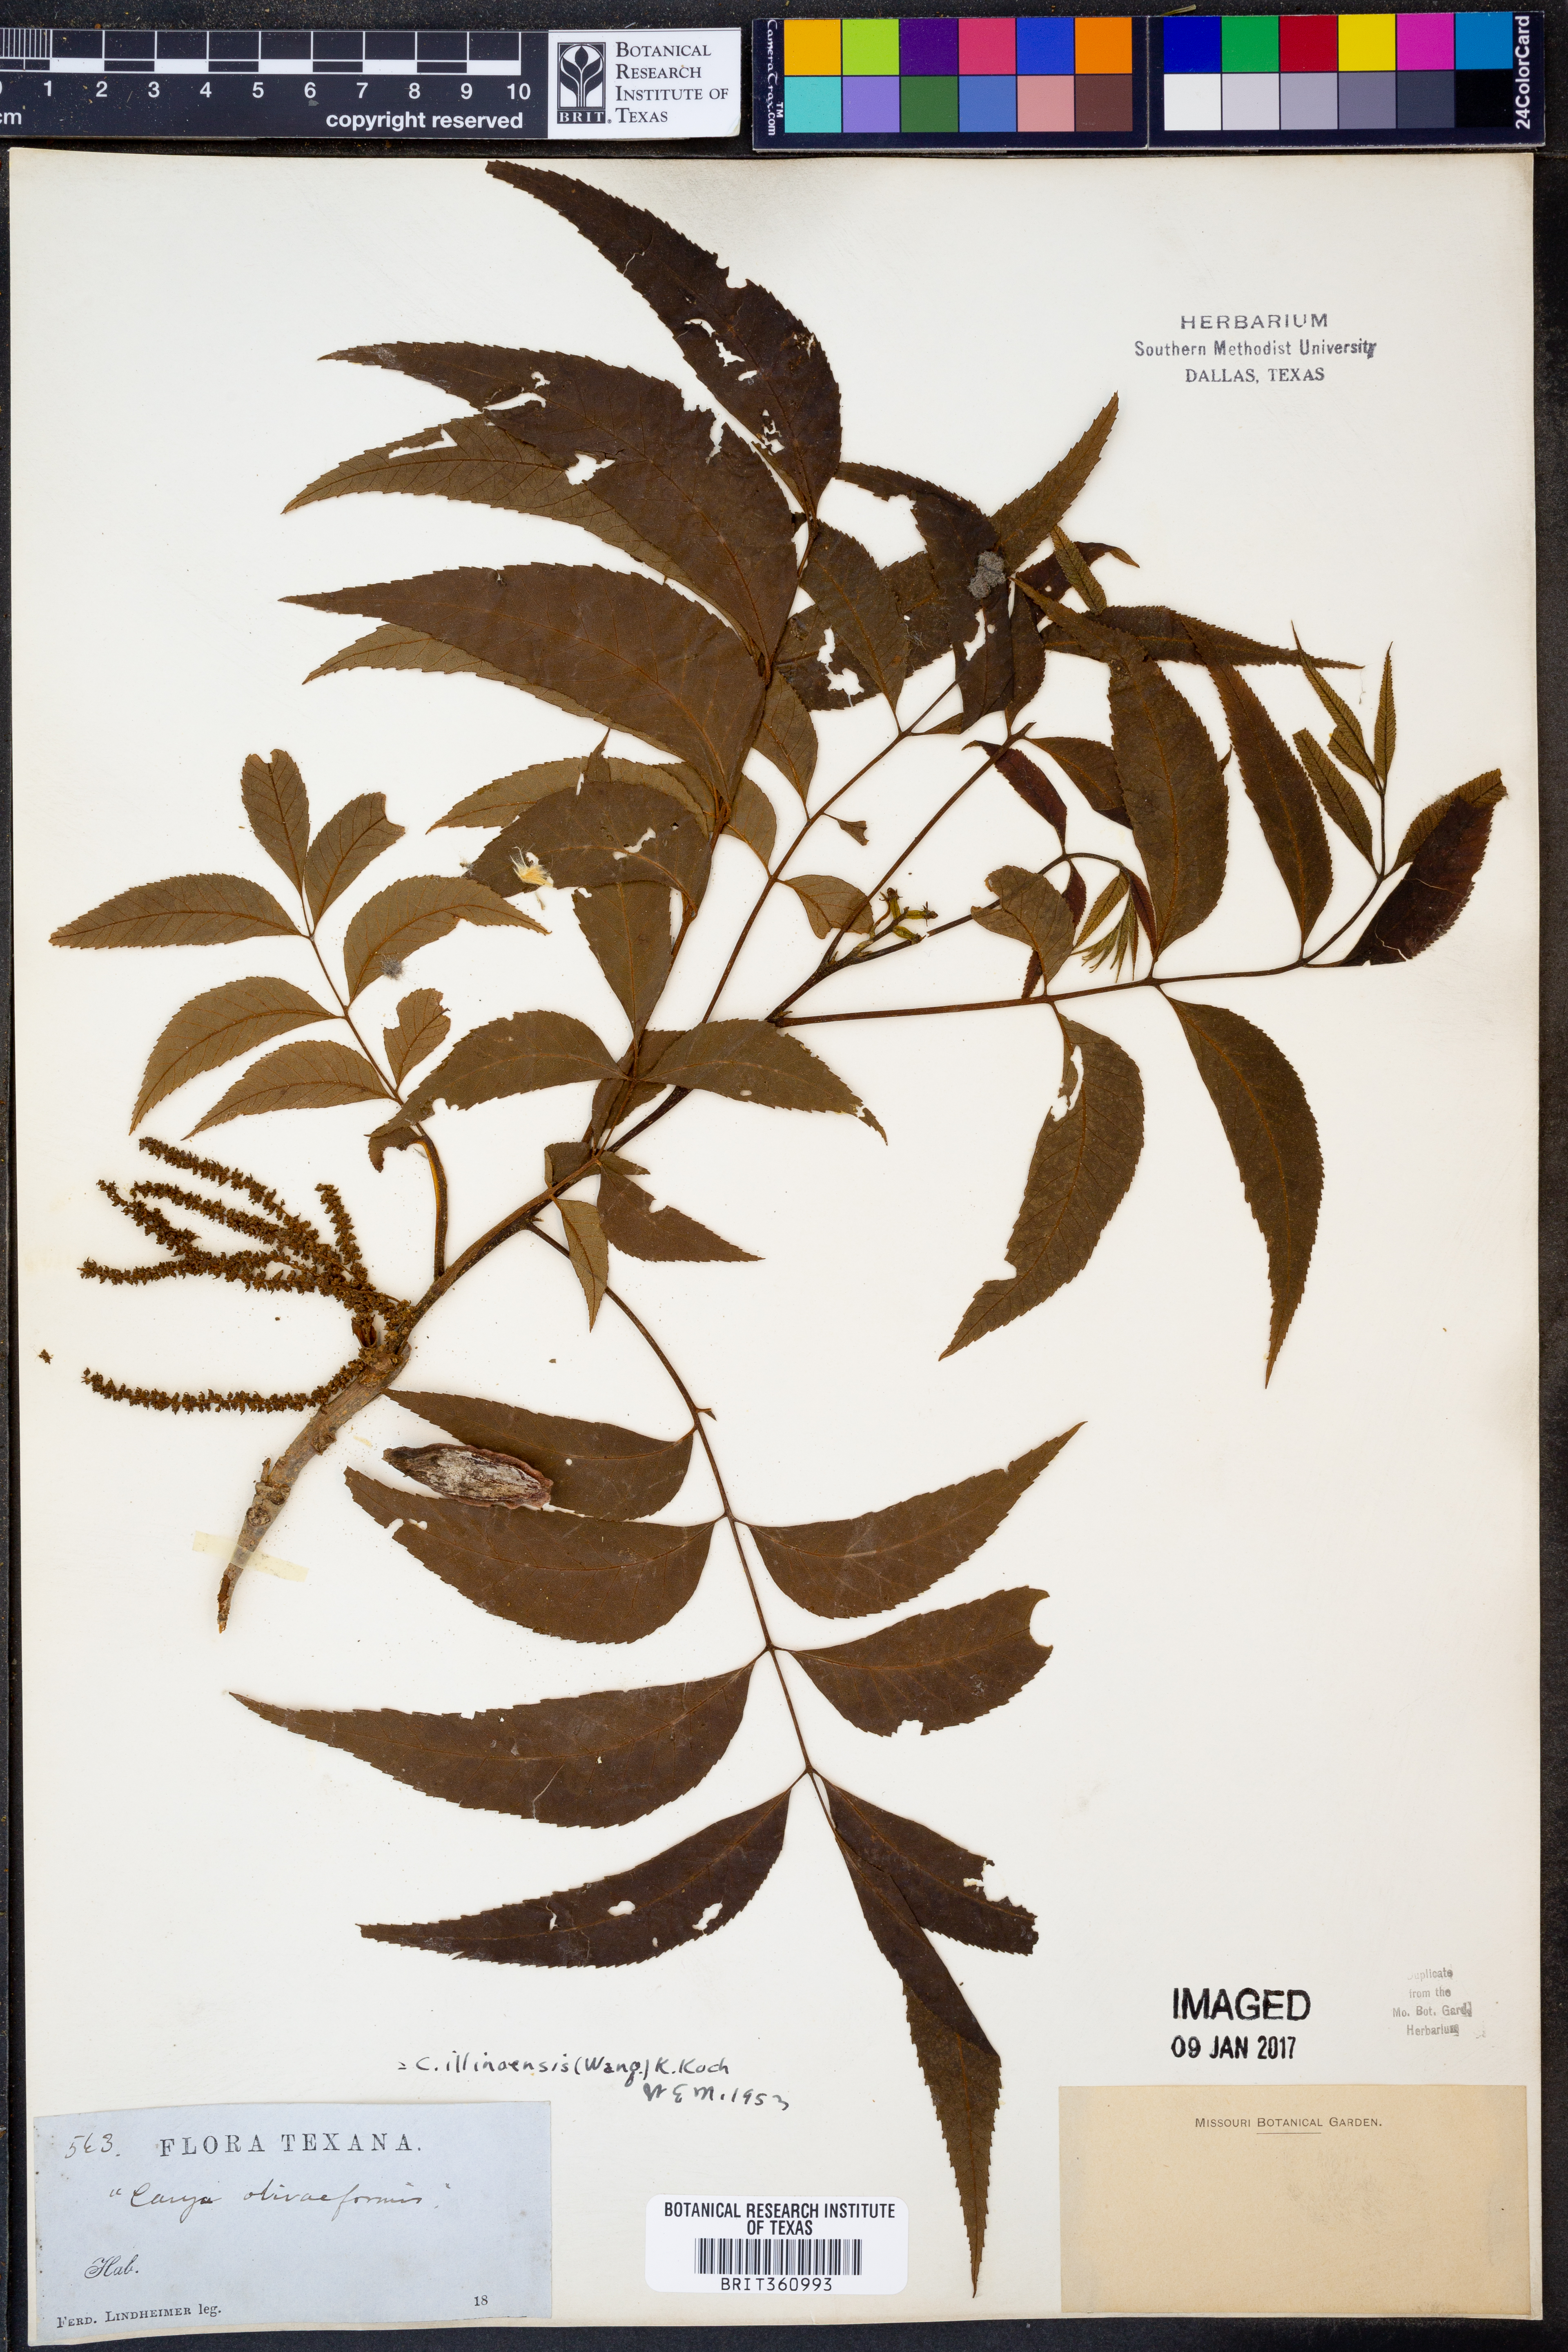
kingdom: Plantae
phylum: Tracheophyta
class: Magnoliopsida
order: Fagales
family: Juglandaceae
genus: Carya
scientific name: Carya illinoinensis
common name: Pecan
